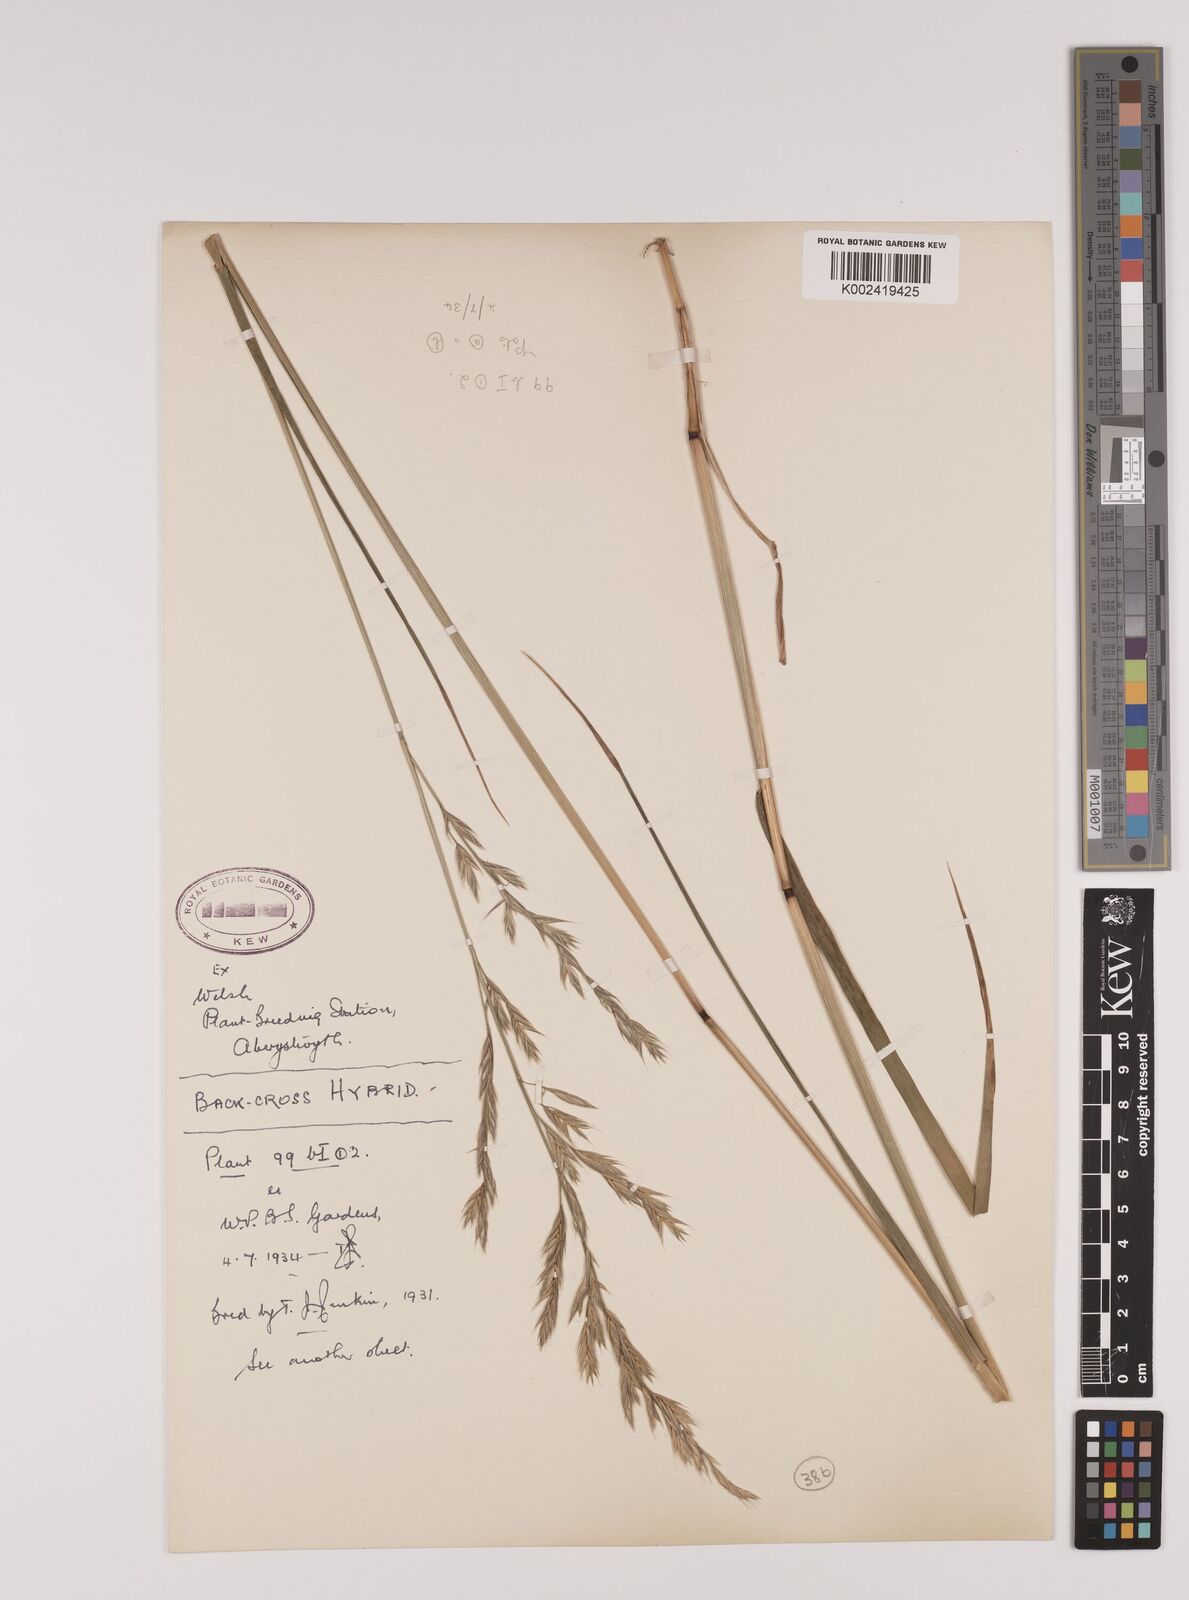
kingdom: Plantae
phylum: Tracheophyta
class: Liliopsida
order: Poales
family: Poaceae
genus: Lolium
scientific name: Lolium giganteum
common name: Giant fescue
